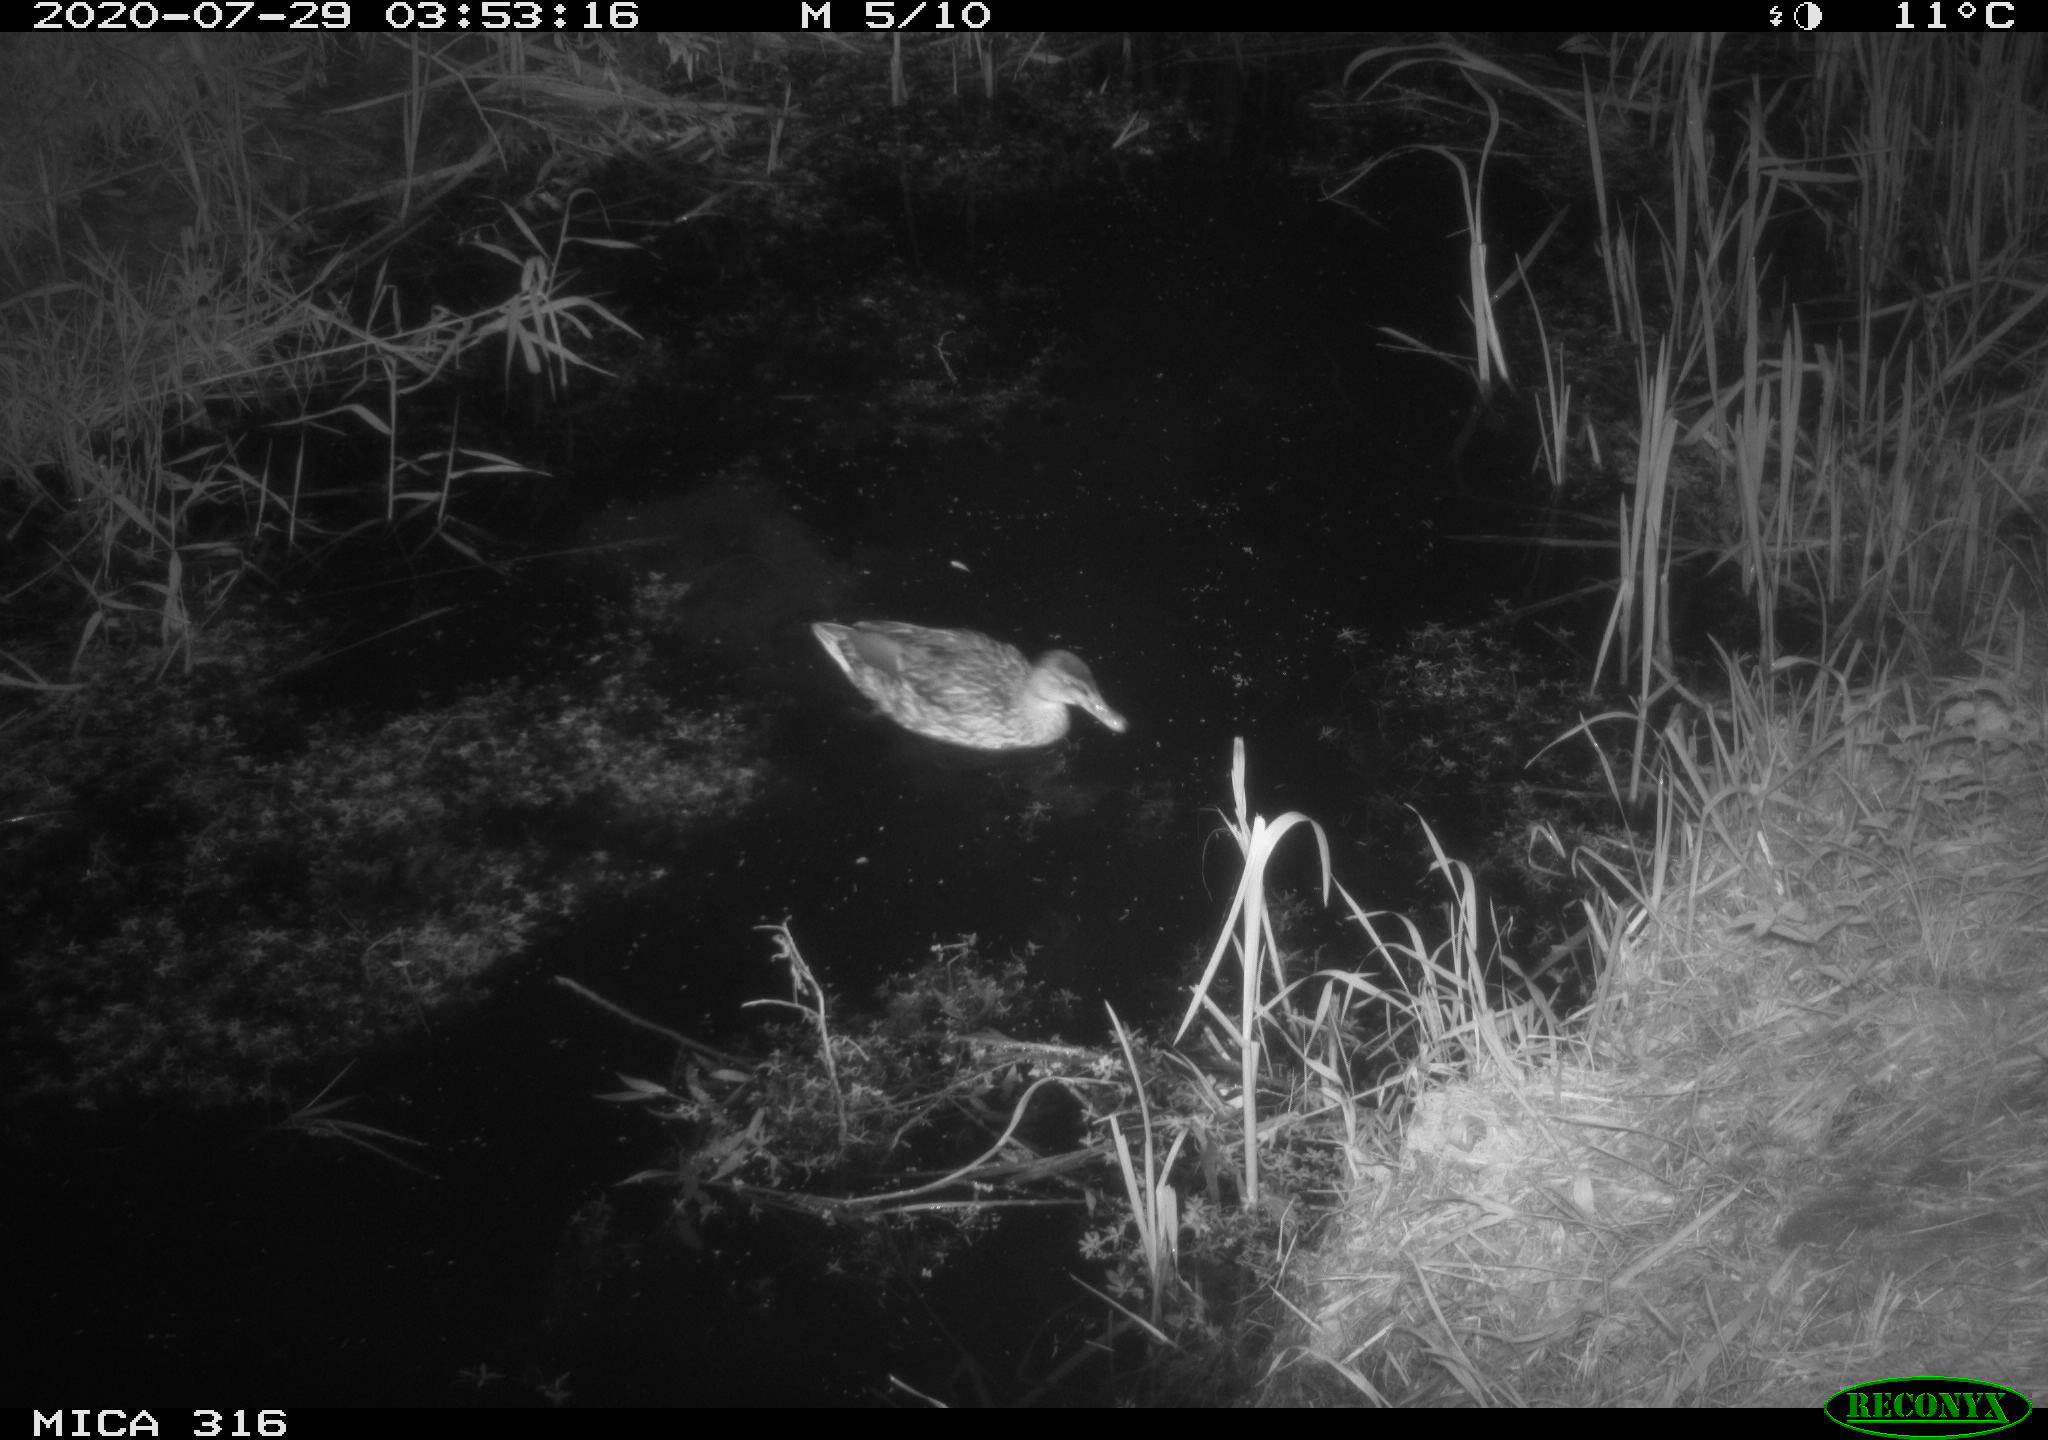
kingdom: Animalia
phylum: Chordata
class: Aves
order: Anseriformes
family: Anatidae
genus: Anas
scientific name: Anas platyrhynchos
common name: Mallard
